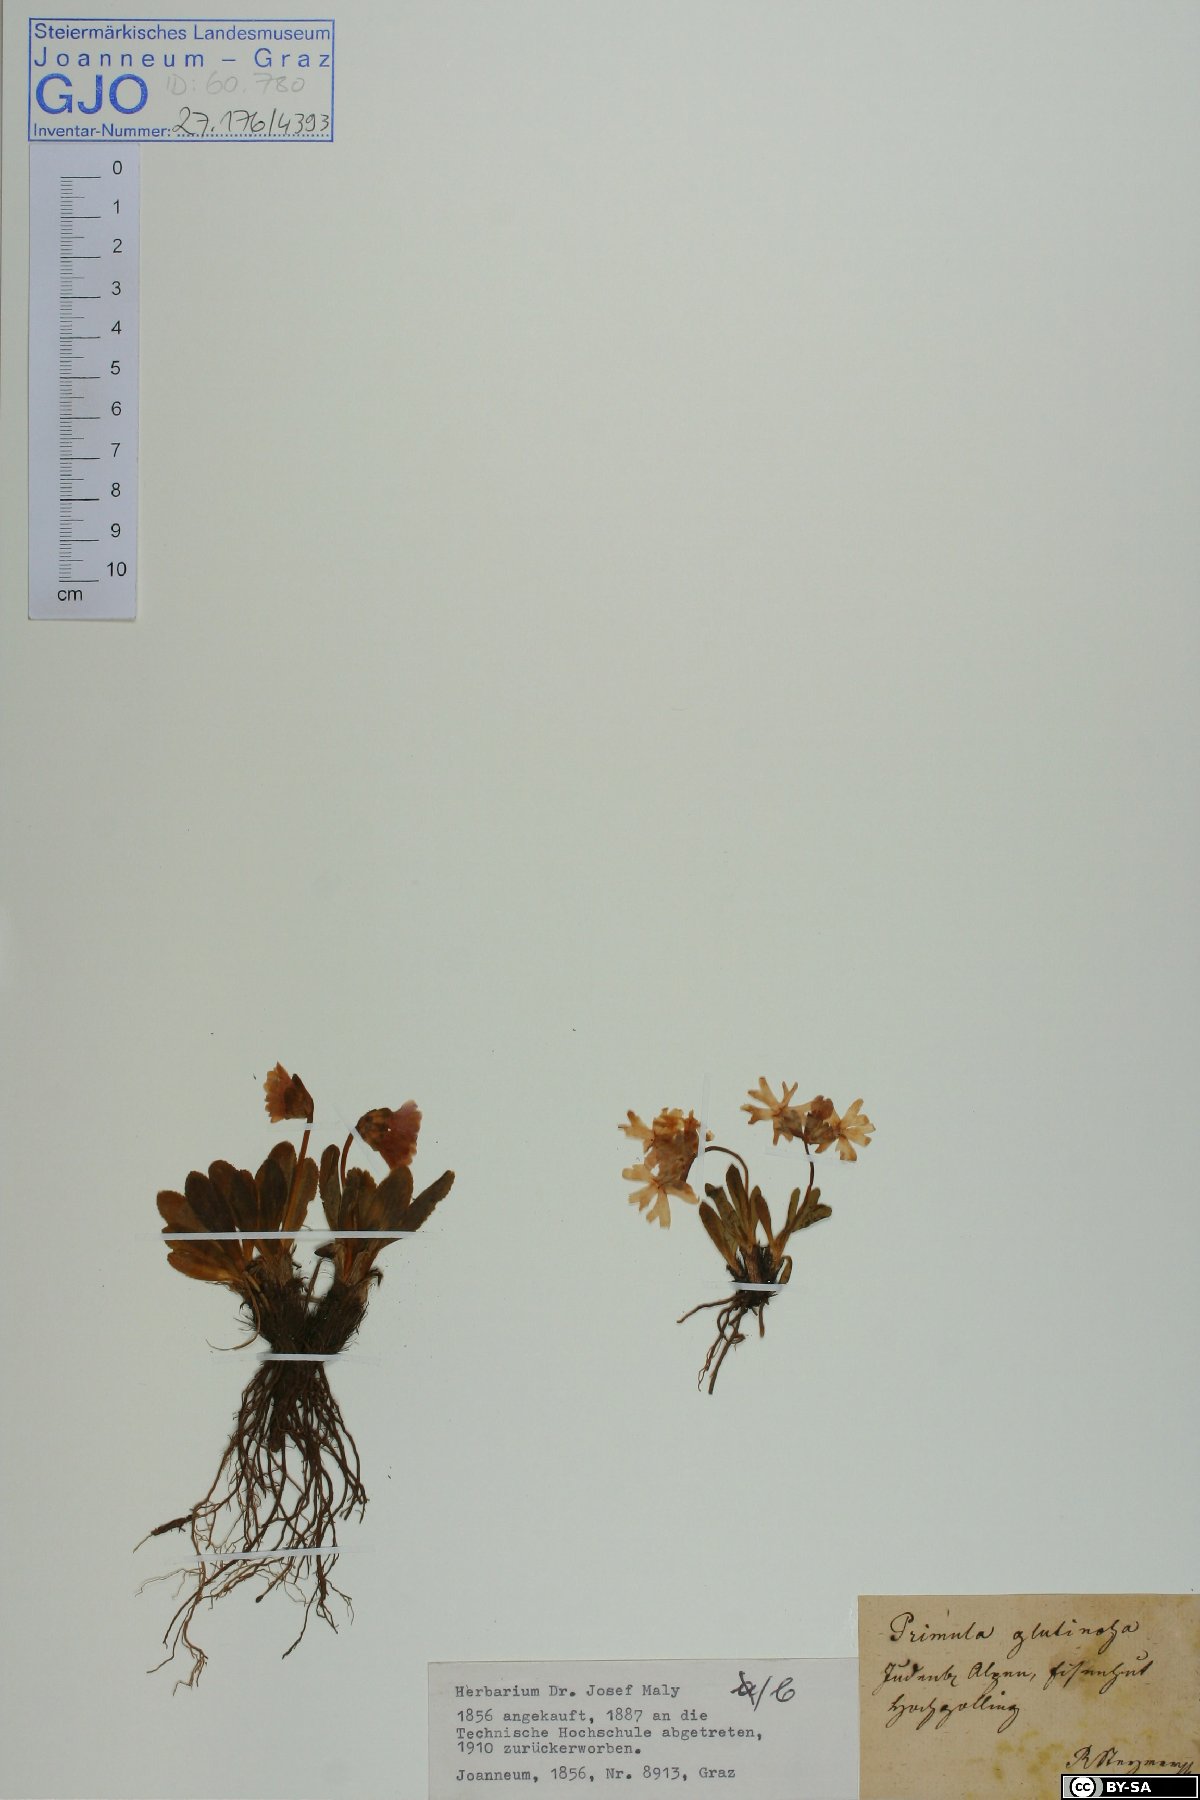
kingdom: Plantae
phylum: Tracheophyta
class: Magnoliopsida
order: Ericales
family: Primulaceae
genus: Primula
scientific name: Primula glutinosa
